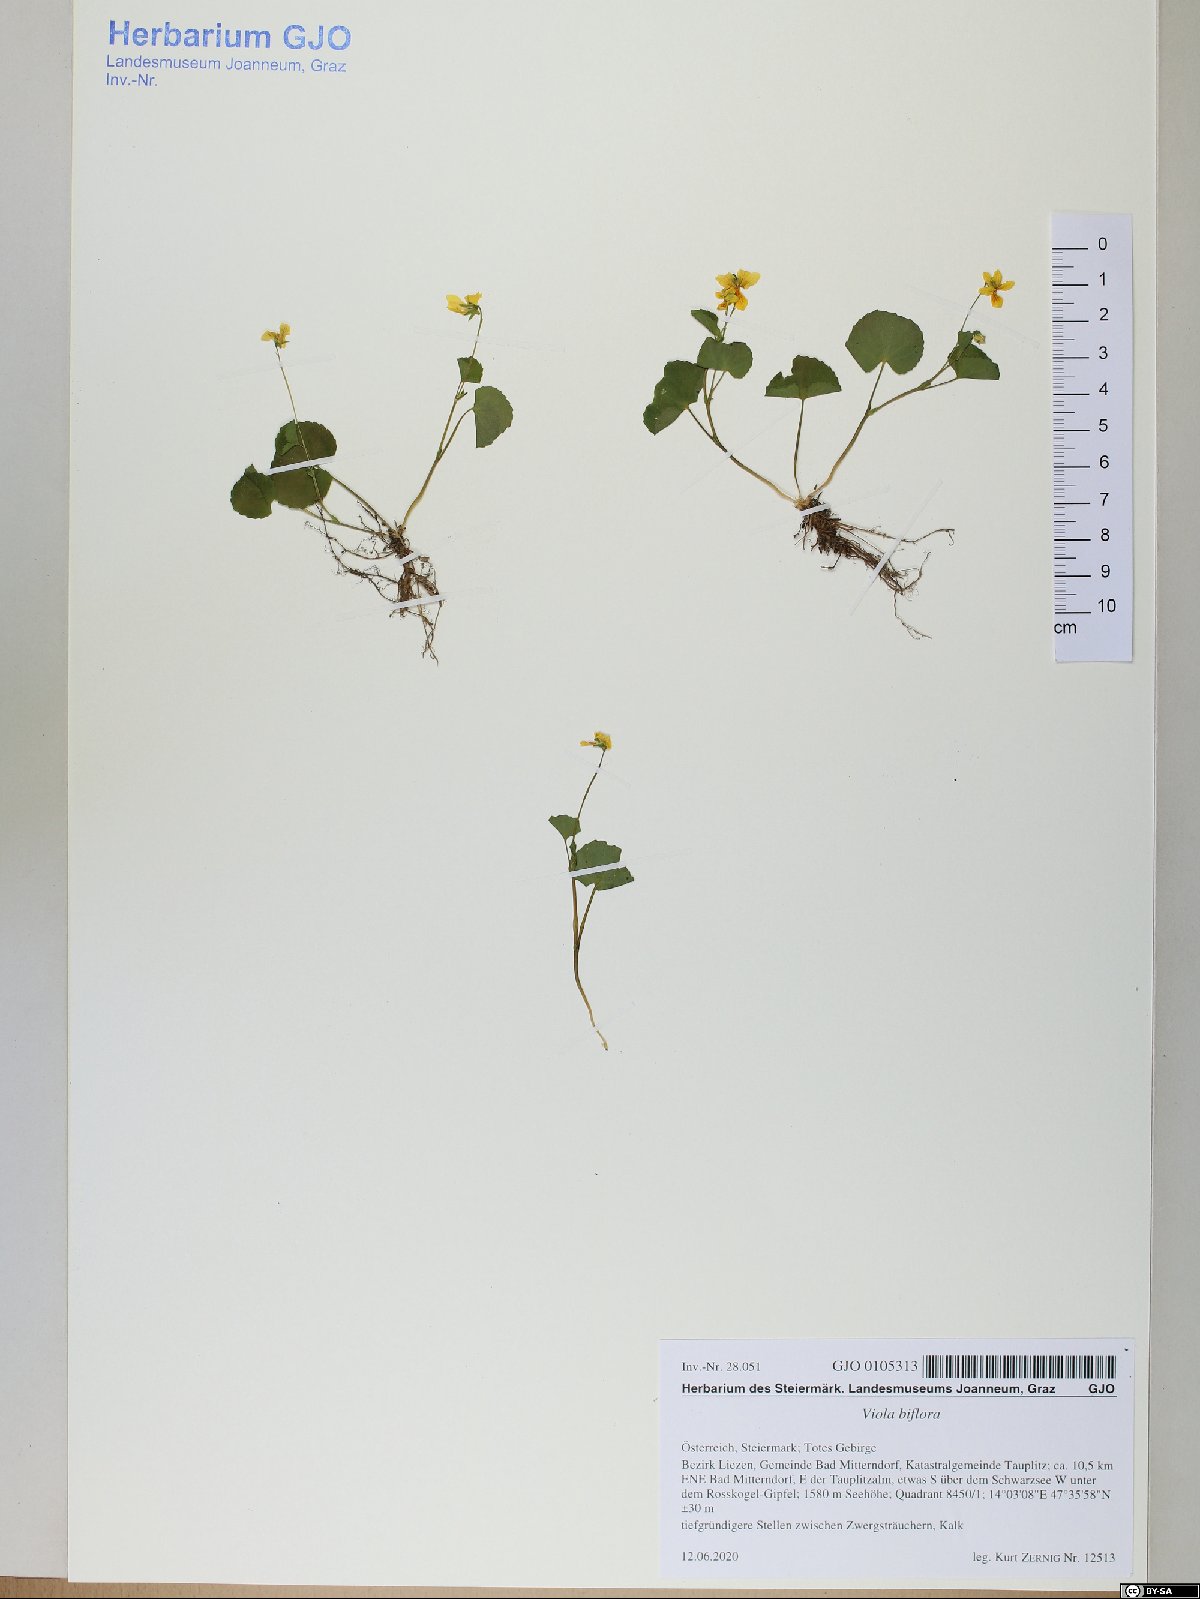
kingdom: Plantae
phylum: Tracheophyta
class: Magnoliopsida
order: Malpighiales
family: Violaceae
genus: Viola
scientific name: Viola biflora
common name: Alpine yellow violet
